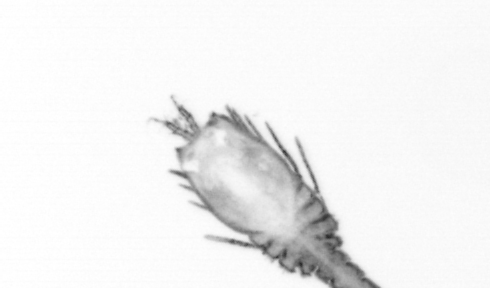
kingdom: Animalia
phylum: Annelida
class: Polychaeta
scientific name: Polychaeta
